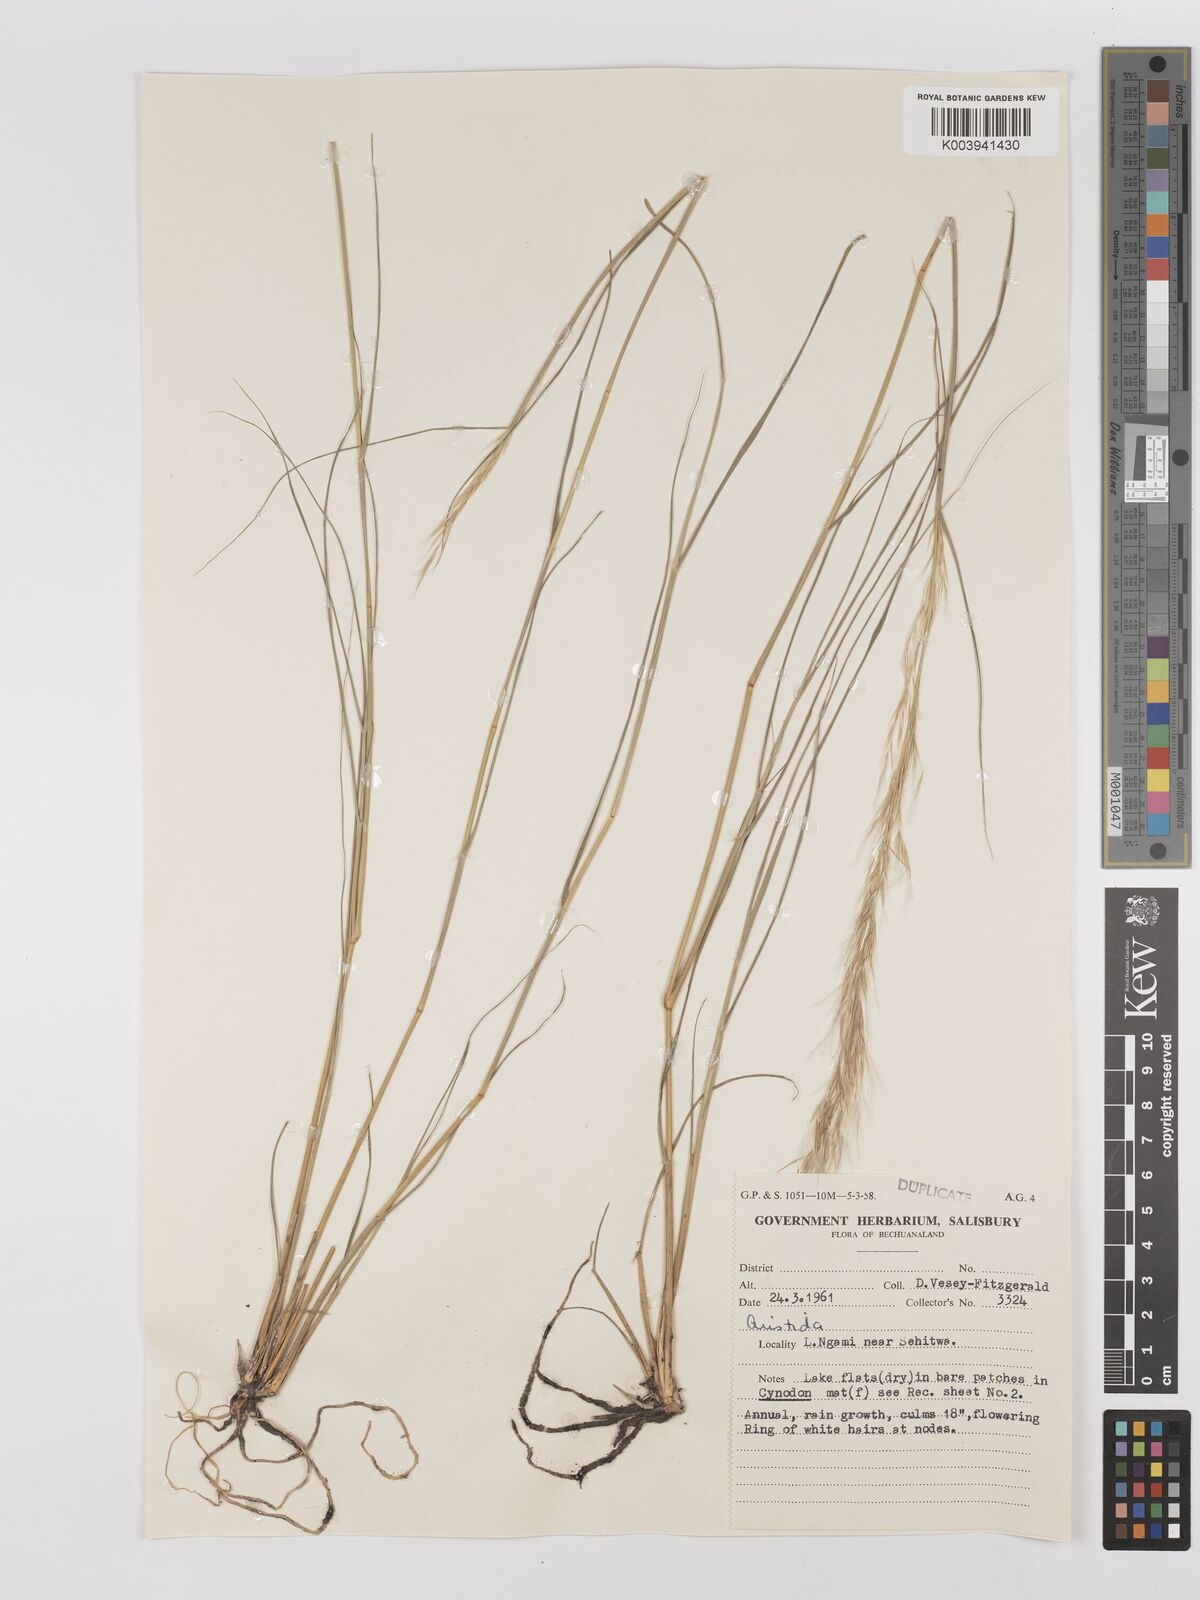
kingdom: Plantae
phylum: Tracheophyta
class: Liliopsida
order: Poales
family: Poaceae
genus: Stipagrostis
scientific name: Stipagrostis uniplumis
